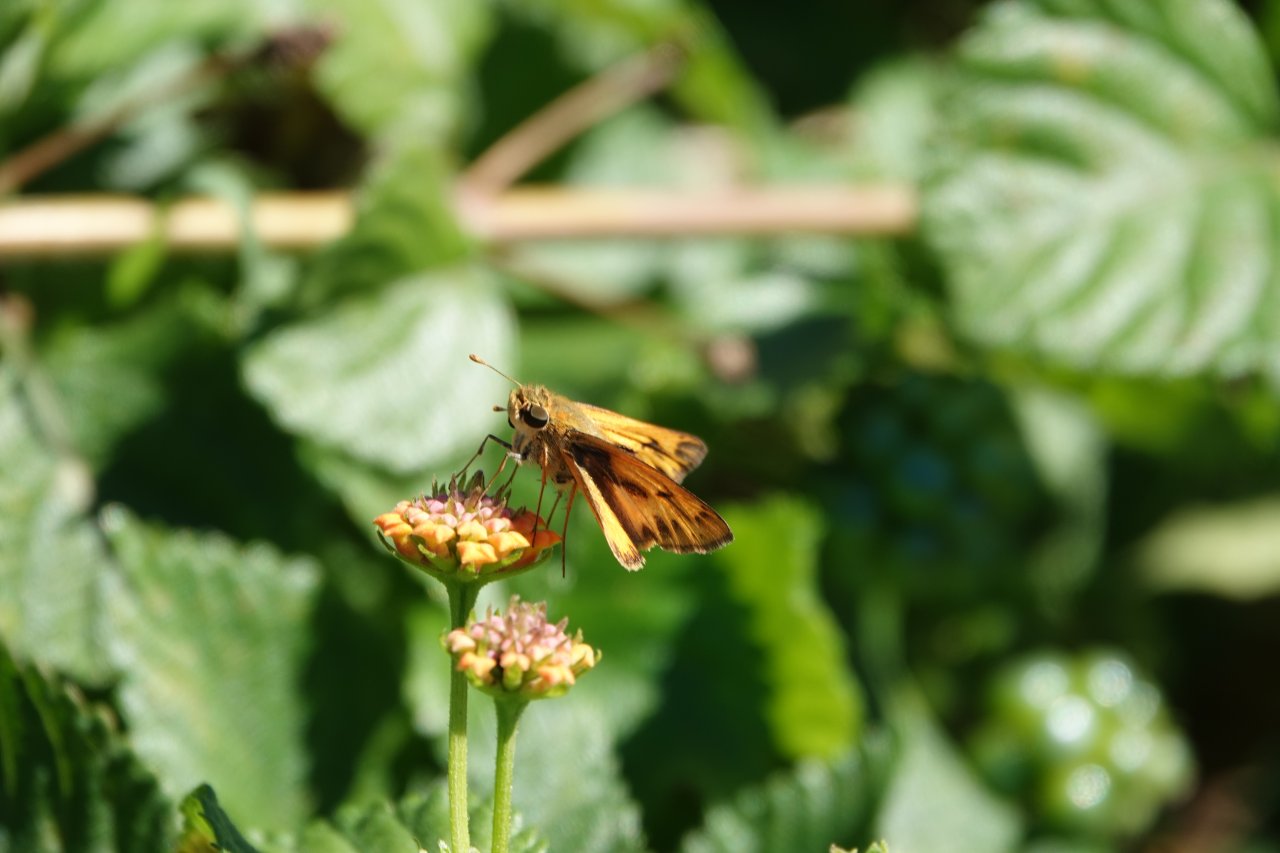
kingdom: Animalia
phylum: Arthropoda
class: Insecta
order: Lepidoptera
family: Hesperiidae
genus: Hylephila
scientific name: Hylephila phyleus
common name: Fiery Skipper
